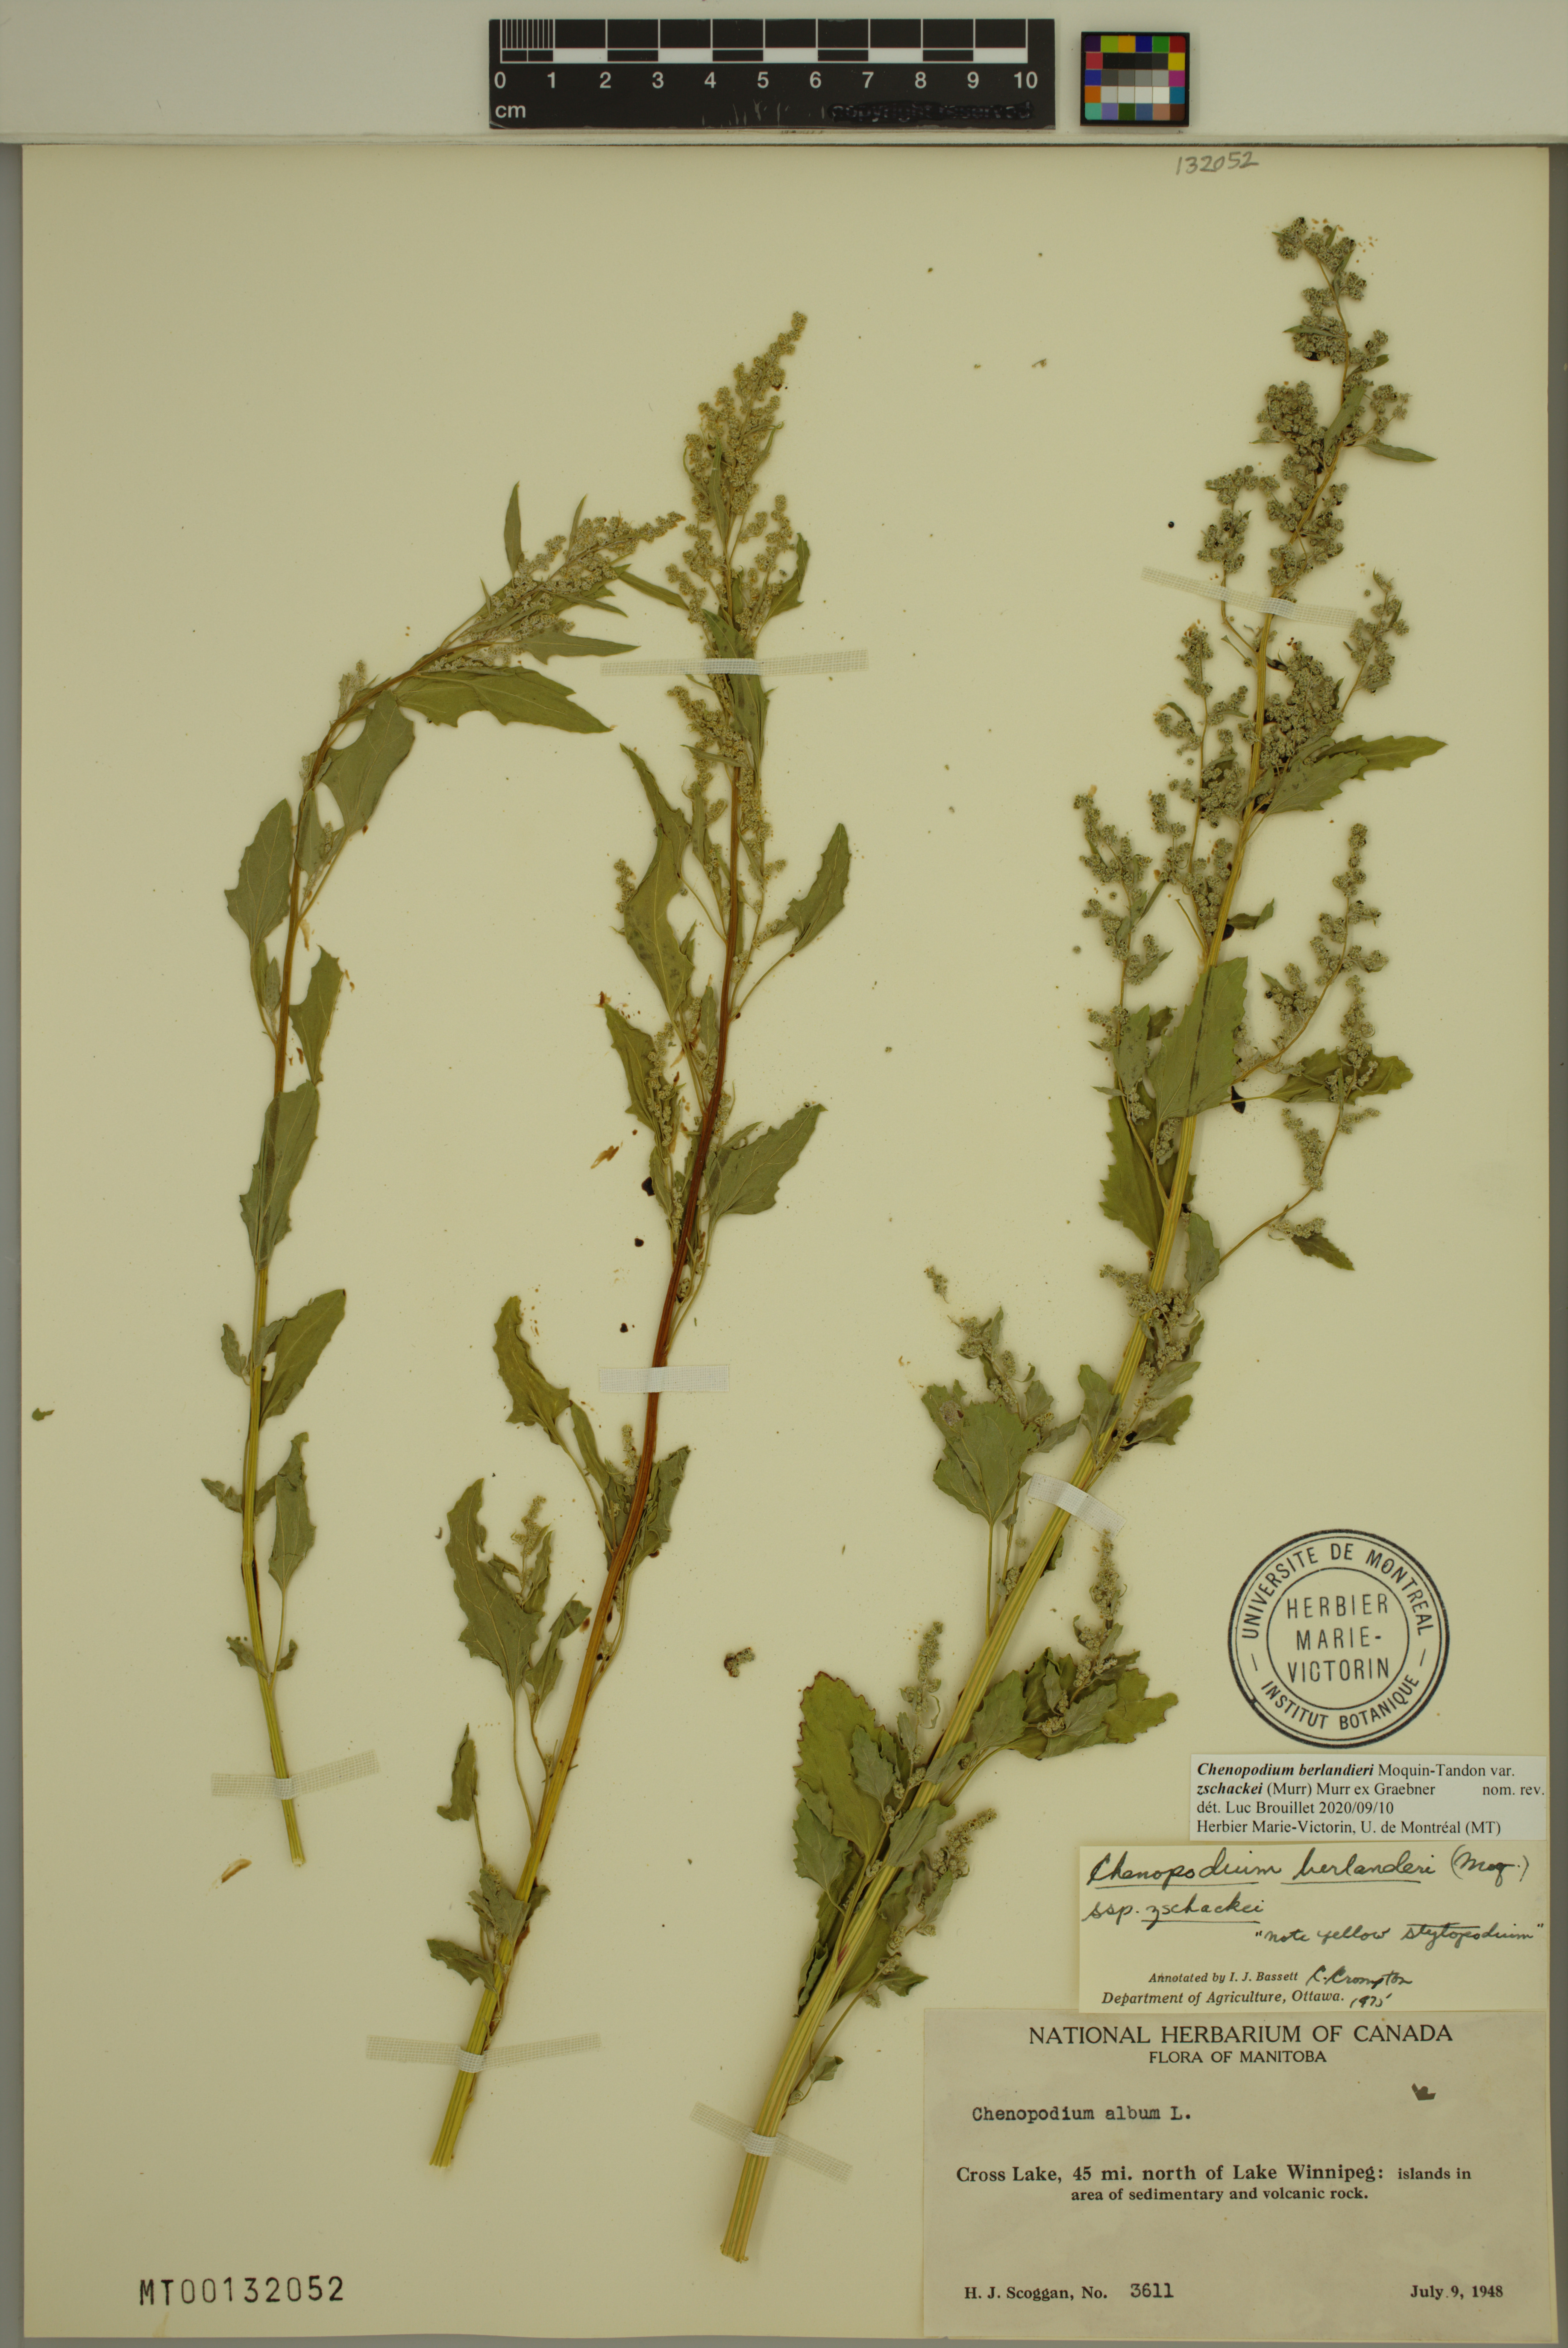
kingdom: Plantae
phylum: Tracheophyta
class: Magnoliopsida
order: Caryophyllales
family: Amaranthaceae
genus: Chenopodium
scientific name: Chenopodium berlandieri
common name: Pit-seed goosefoot
